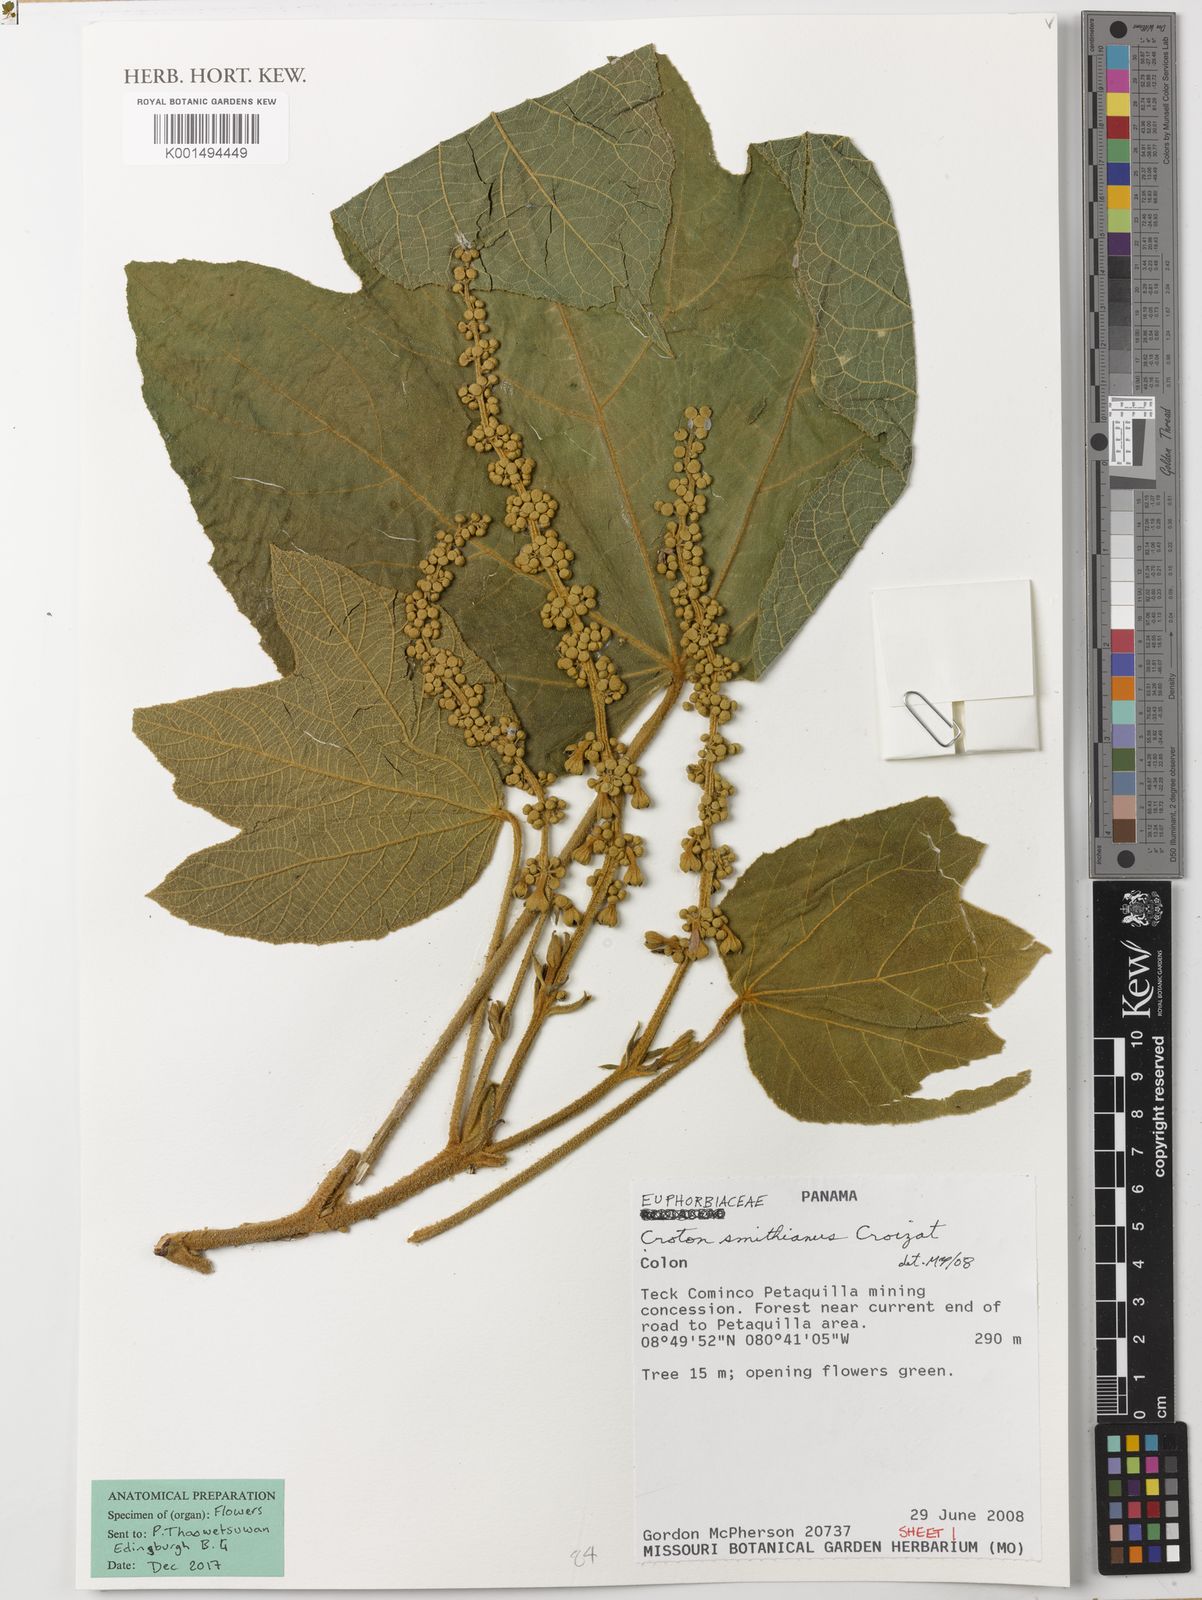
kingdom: Plantae
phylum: Tracheophyta
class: Magnoliopsida
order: Malpighiales
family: Euphorbiaceae
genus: Croton
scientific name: Croton smithianus
